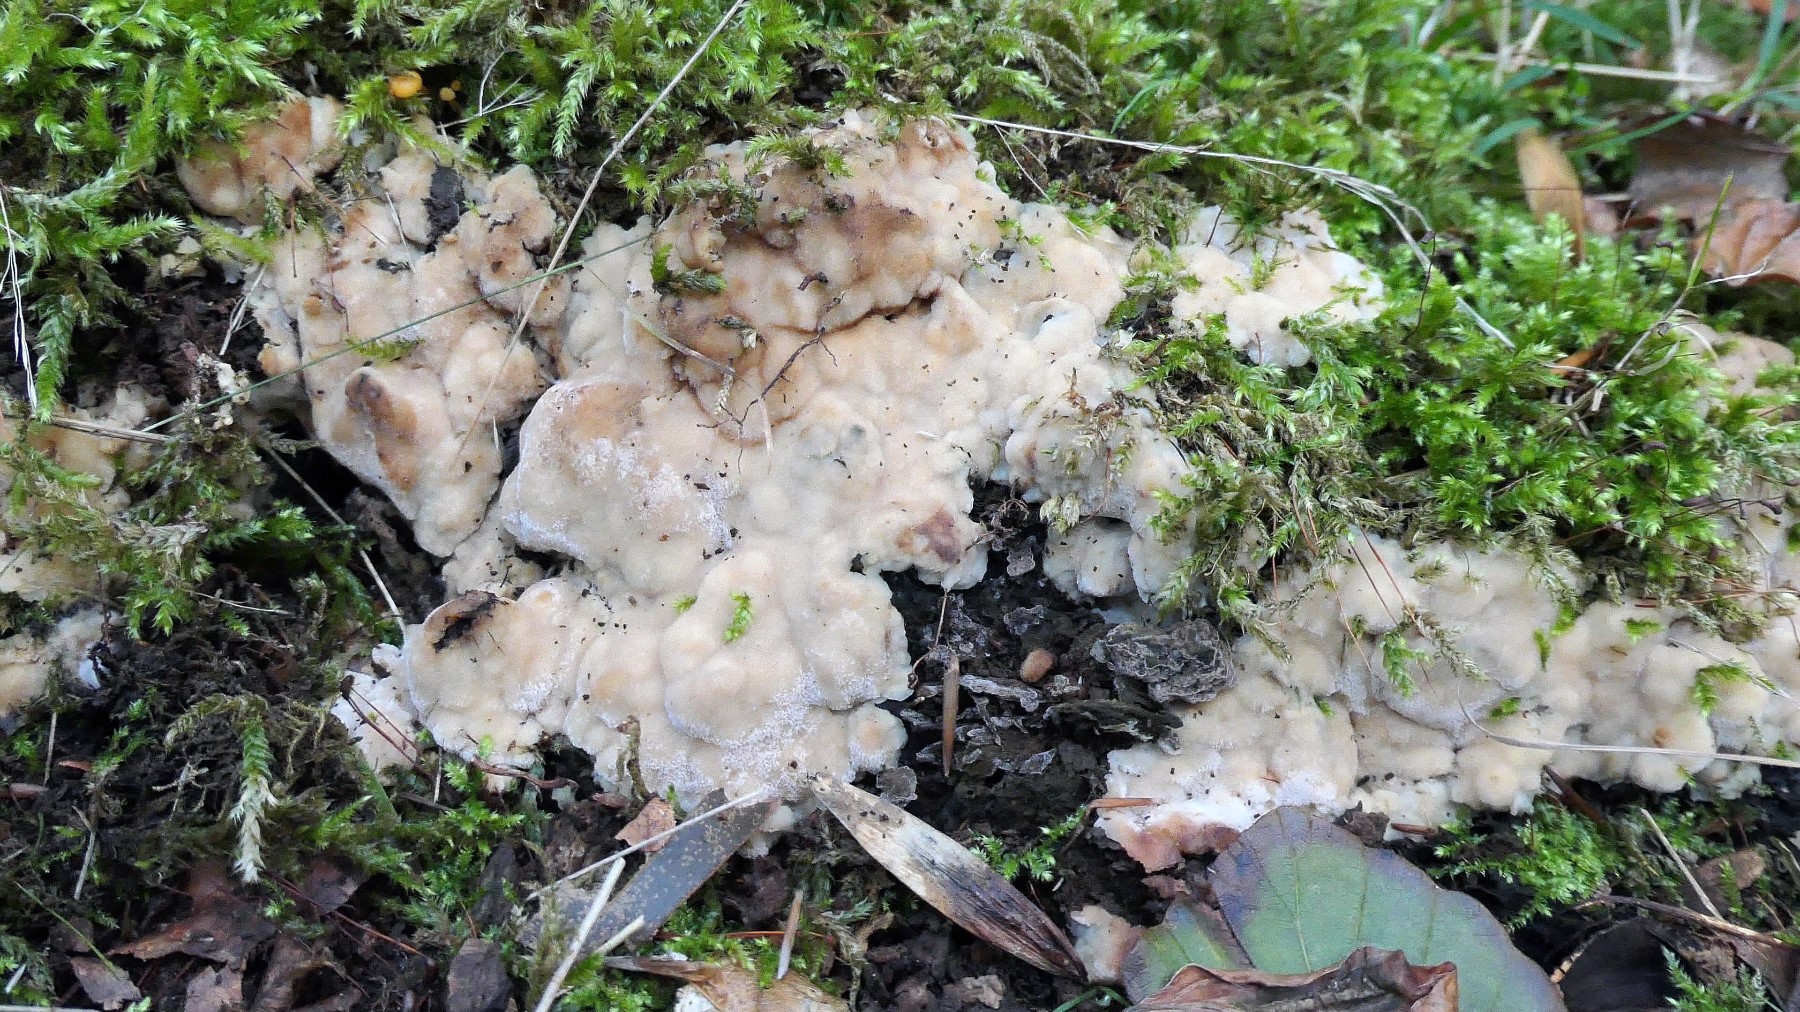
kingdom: Fungi
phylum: Basidiomycota
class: Agaricomycetes
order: Polyporales
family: Meripilaceae
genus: Rigidoporus
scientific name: Rigidoporus sanguinolentus
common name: blod-skorpeporesvamp
